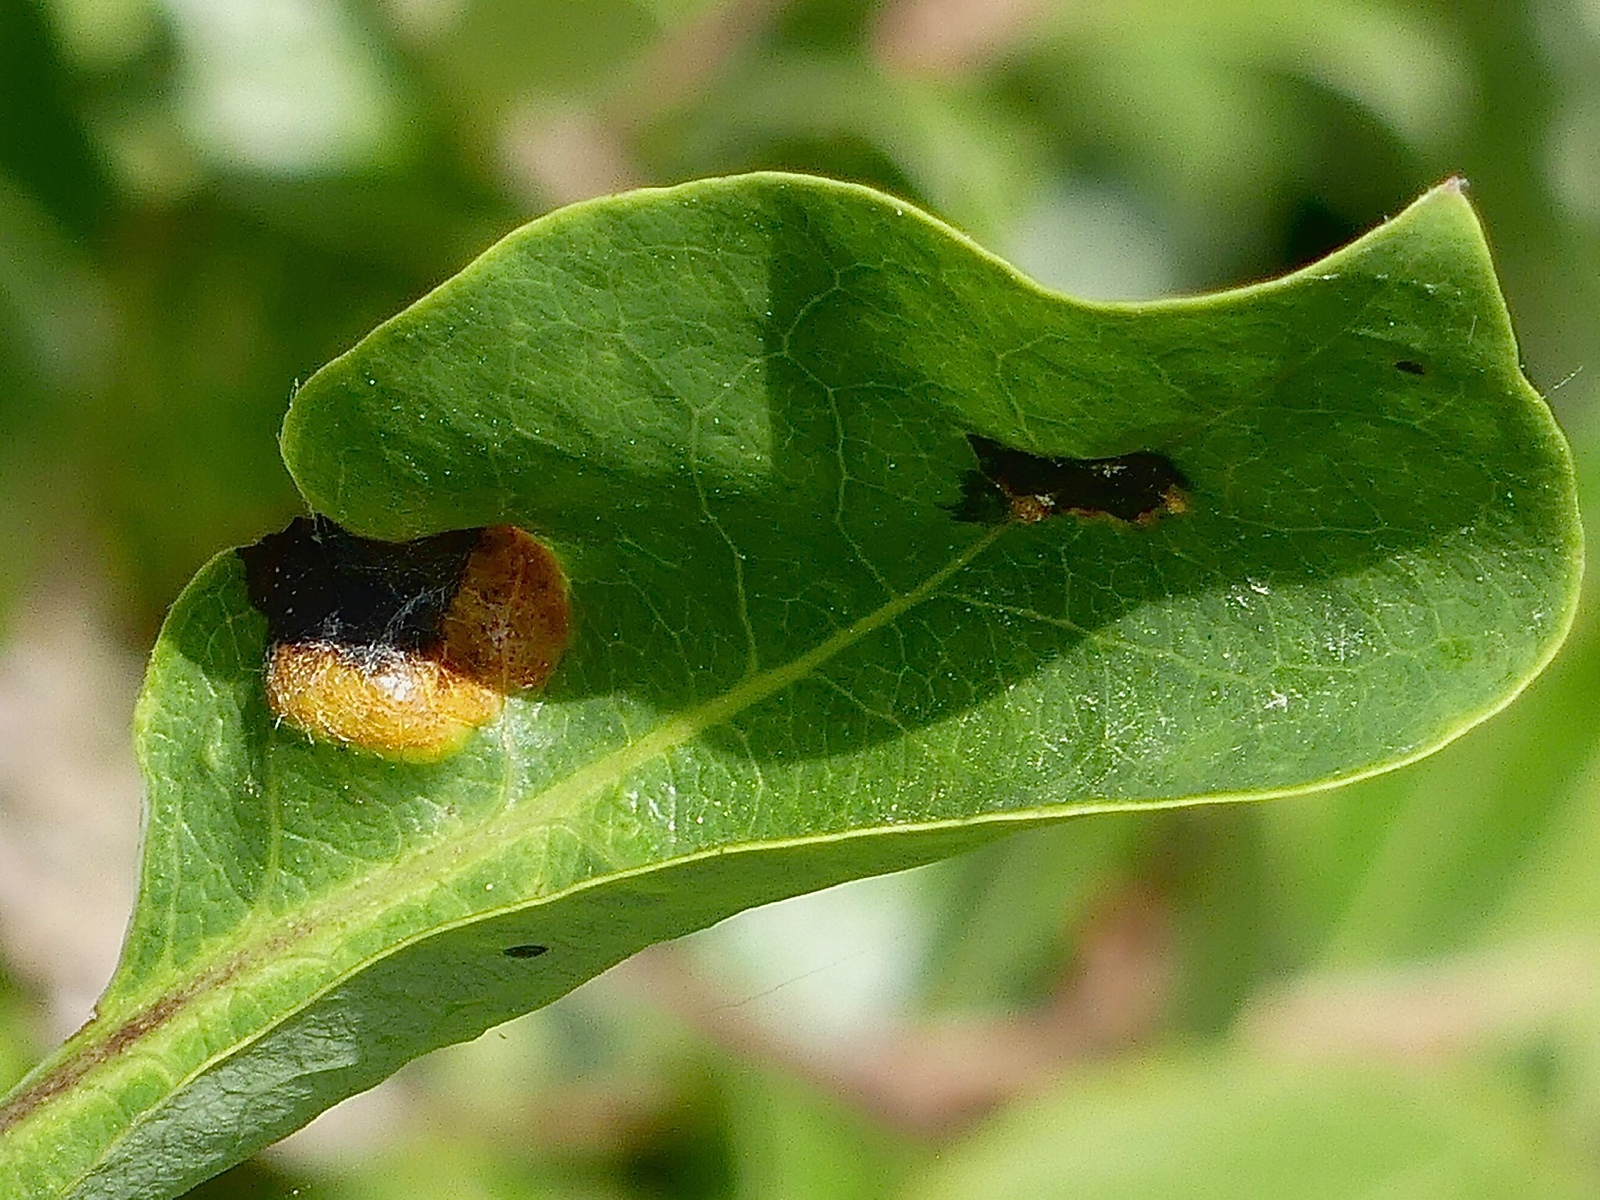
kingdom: Fungi
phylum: Basidiomycota
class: Pucciniomycetes
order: Pucciniales
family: Pucciniaceae
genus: Puccinia
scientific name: Puccinia festucae
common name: gedeblad-tvecellerust
